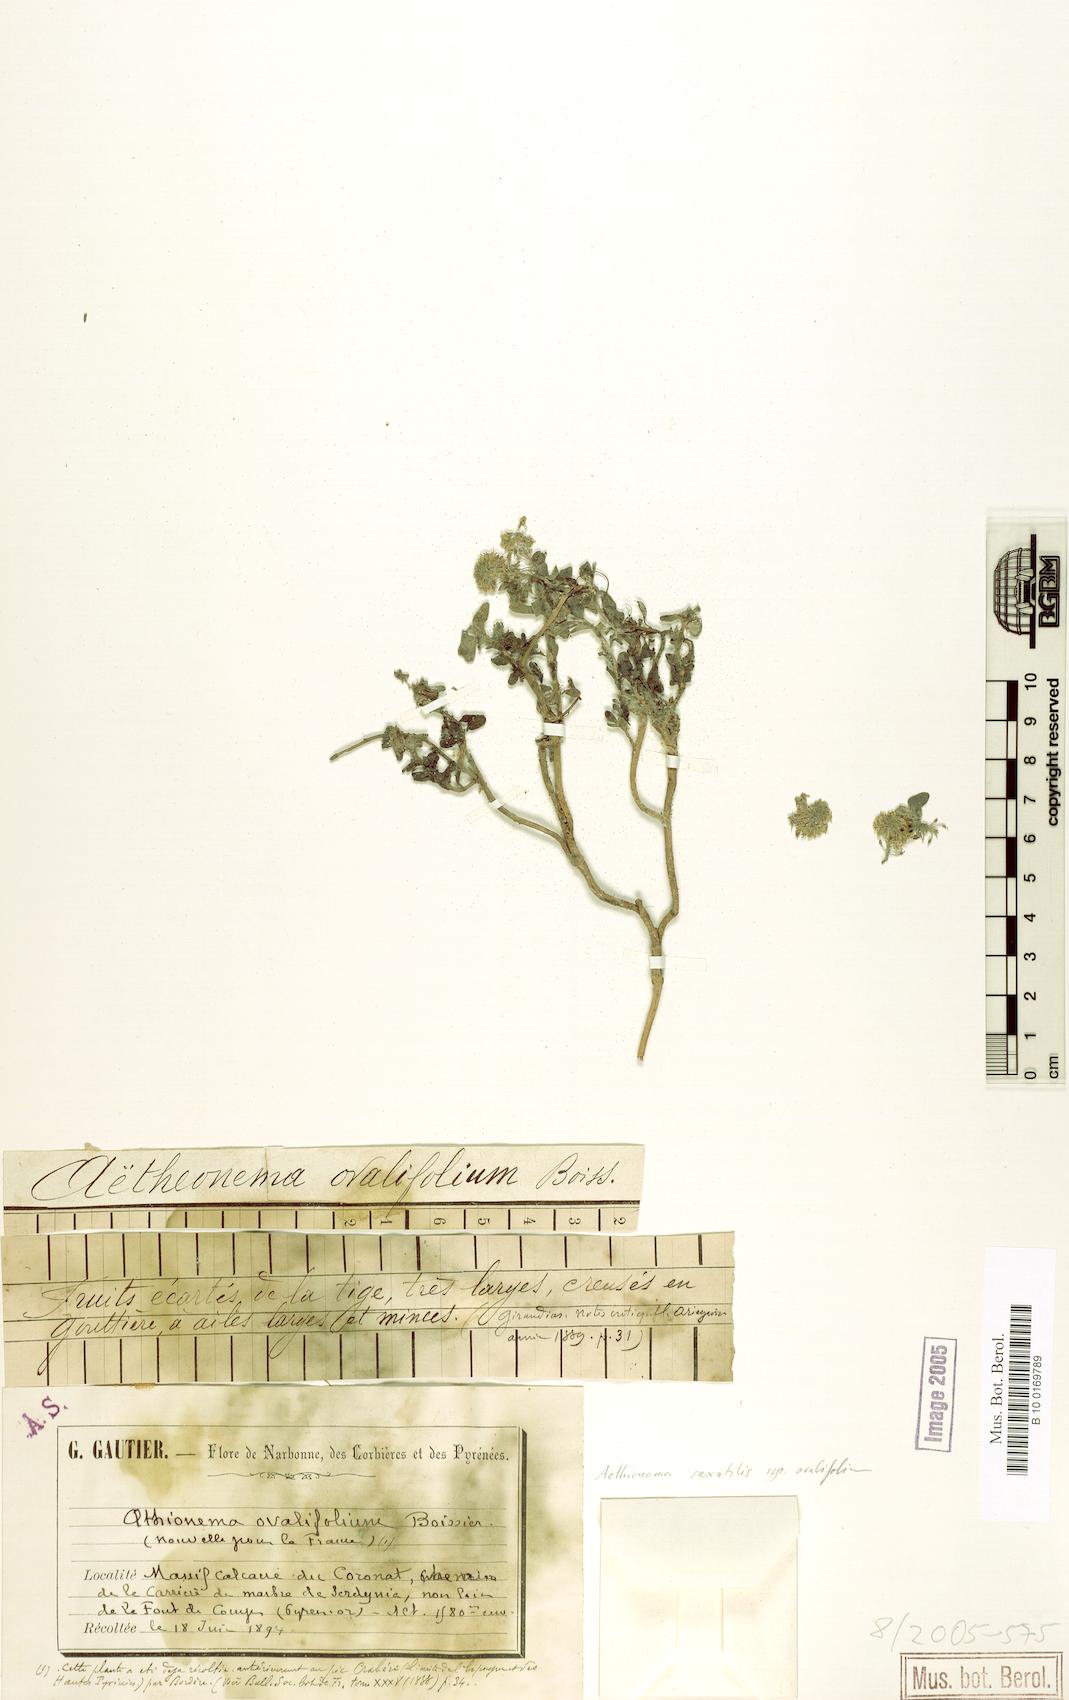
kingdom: Plantae
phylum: Tracheophyta
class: Magnoliopsida
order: Brassicales
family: Brassicaceae
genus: Aethionema
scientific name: Aethionema saxatile
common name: Burnt candytuft
